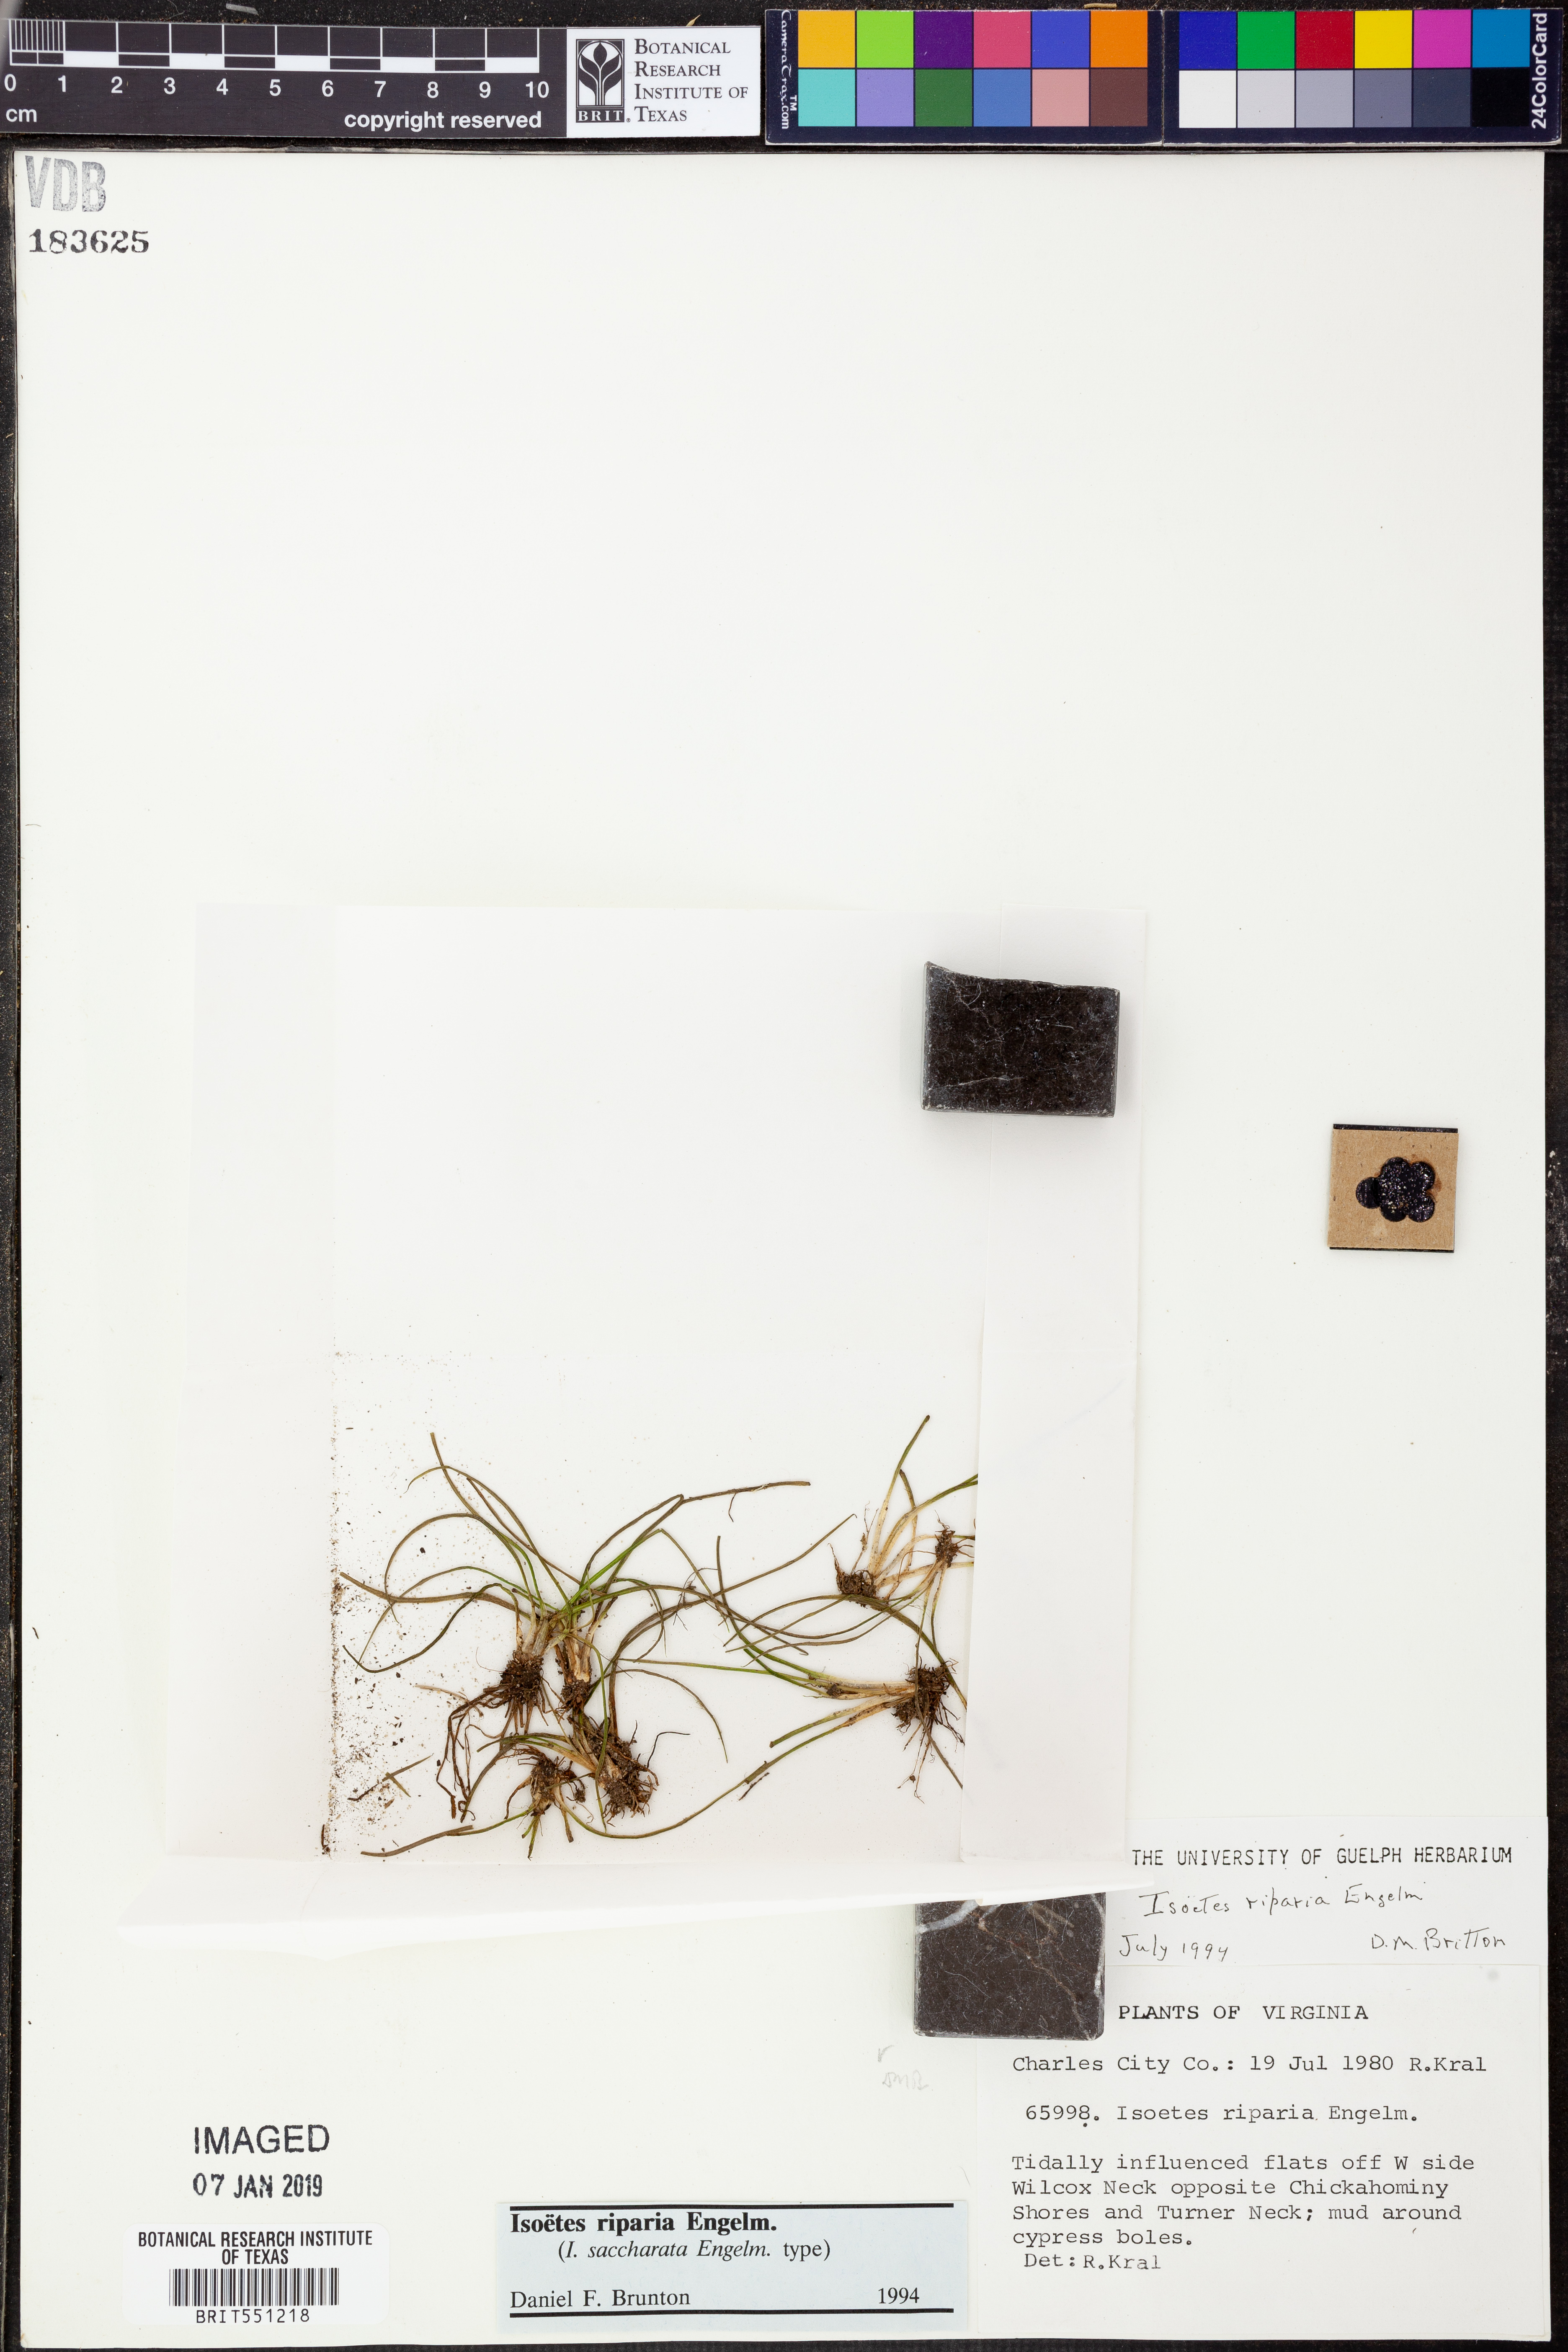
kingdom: Plantae
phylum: Tracheophyta
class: Lycopodiopsida
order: Isoetales
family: Isoetaceae
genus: Isoetes
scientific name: Isoetes riparia
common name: Riverbank quillwort
